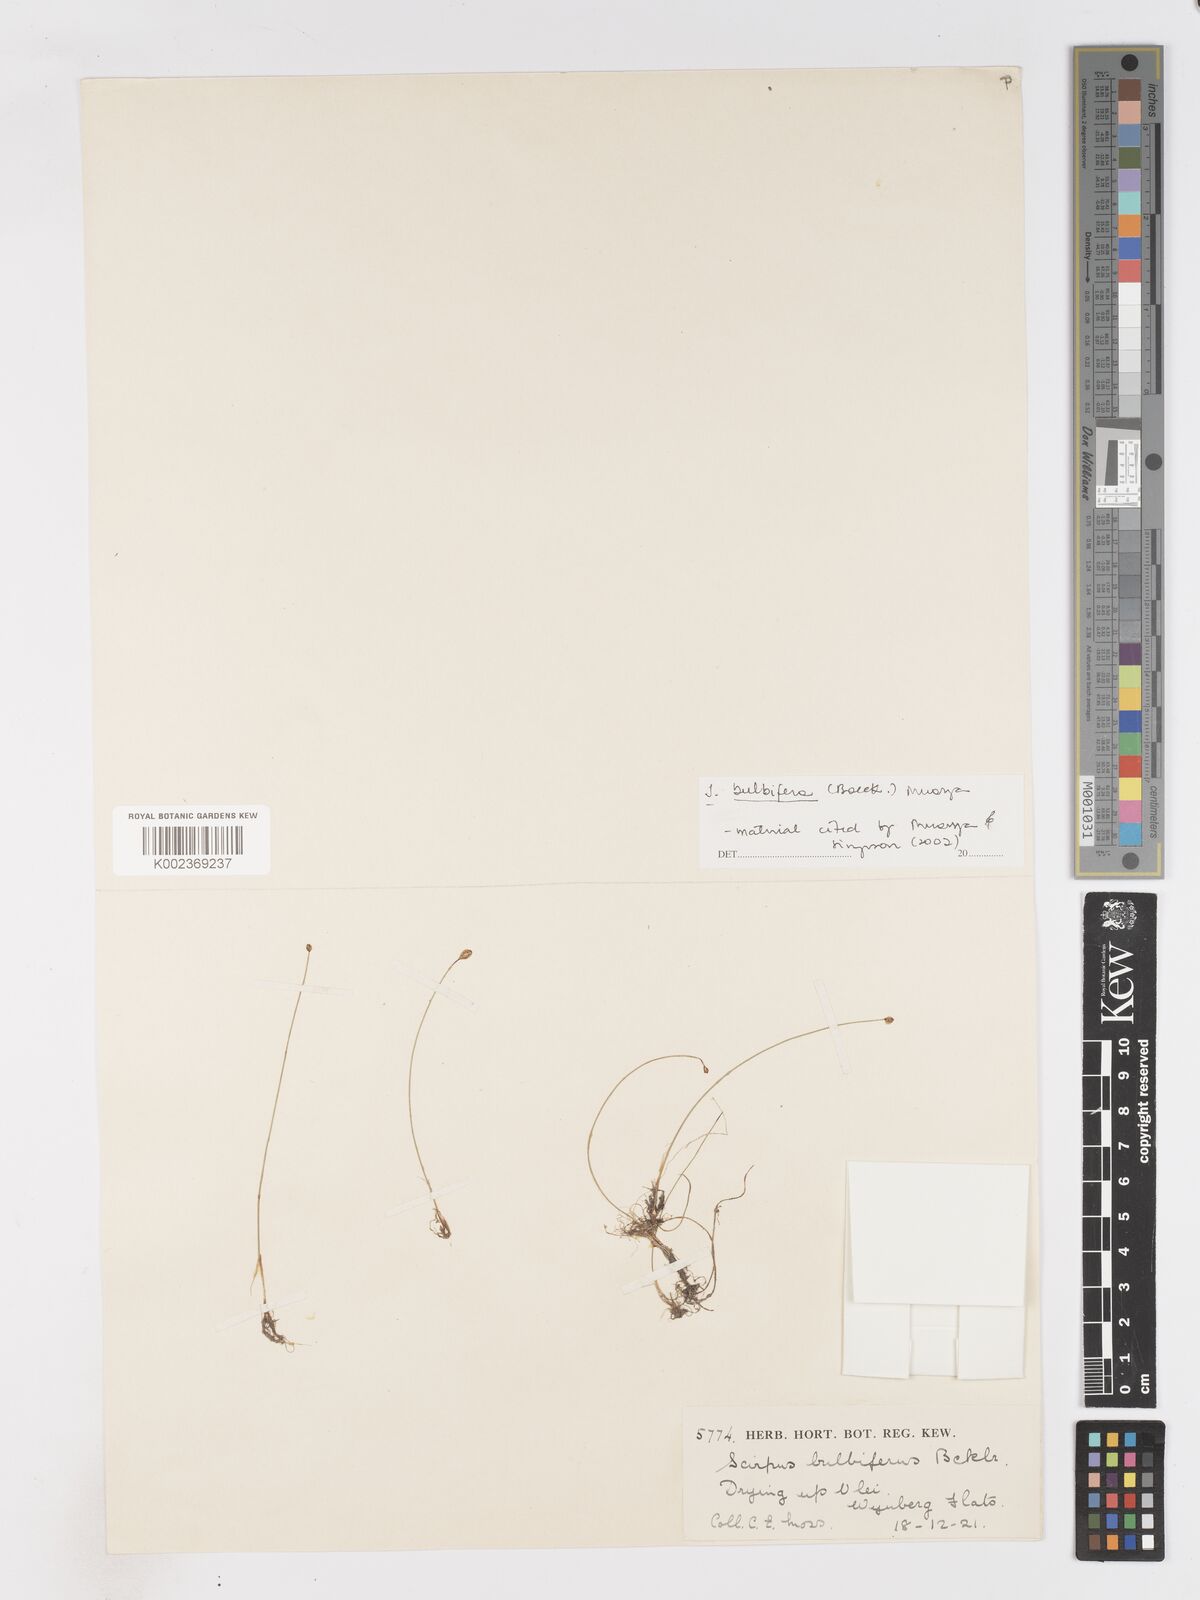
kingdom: Plantae
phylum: Tracheophyta
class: Liliopsida
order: Poales
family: Cyperaceae
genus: Isolepis
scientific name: Isolepis bulbifera
